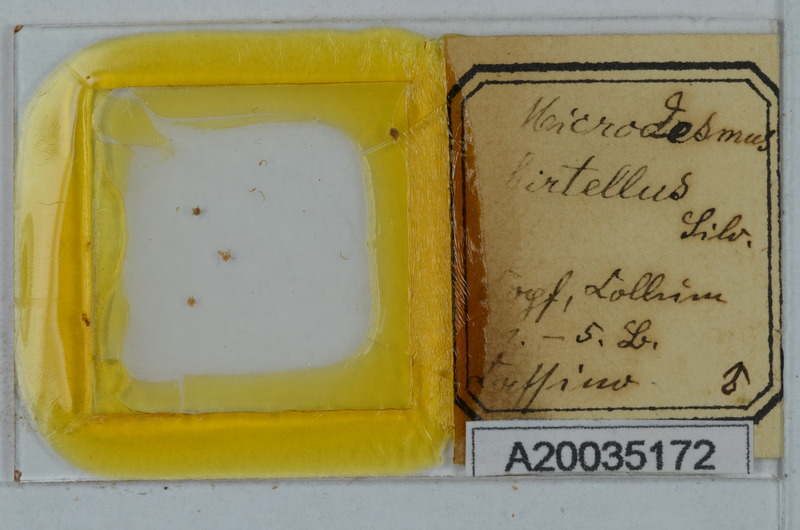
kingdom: Animalia
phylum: Arthropoda
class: Diplopoda
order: Polydesmida
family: Paradoxosomatidae
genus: Metonomastus
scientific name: Metonomastus hirtellus
